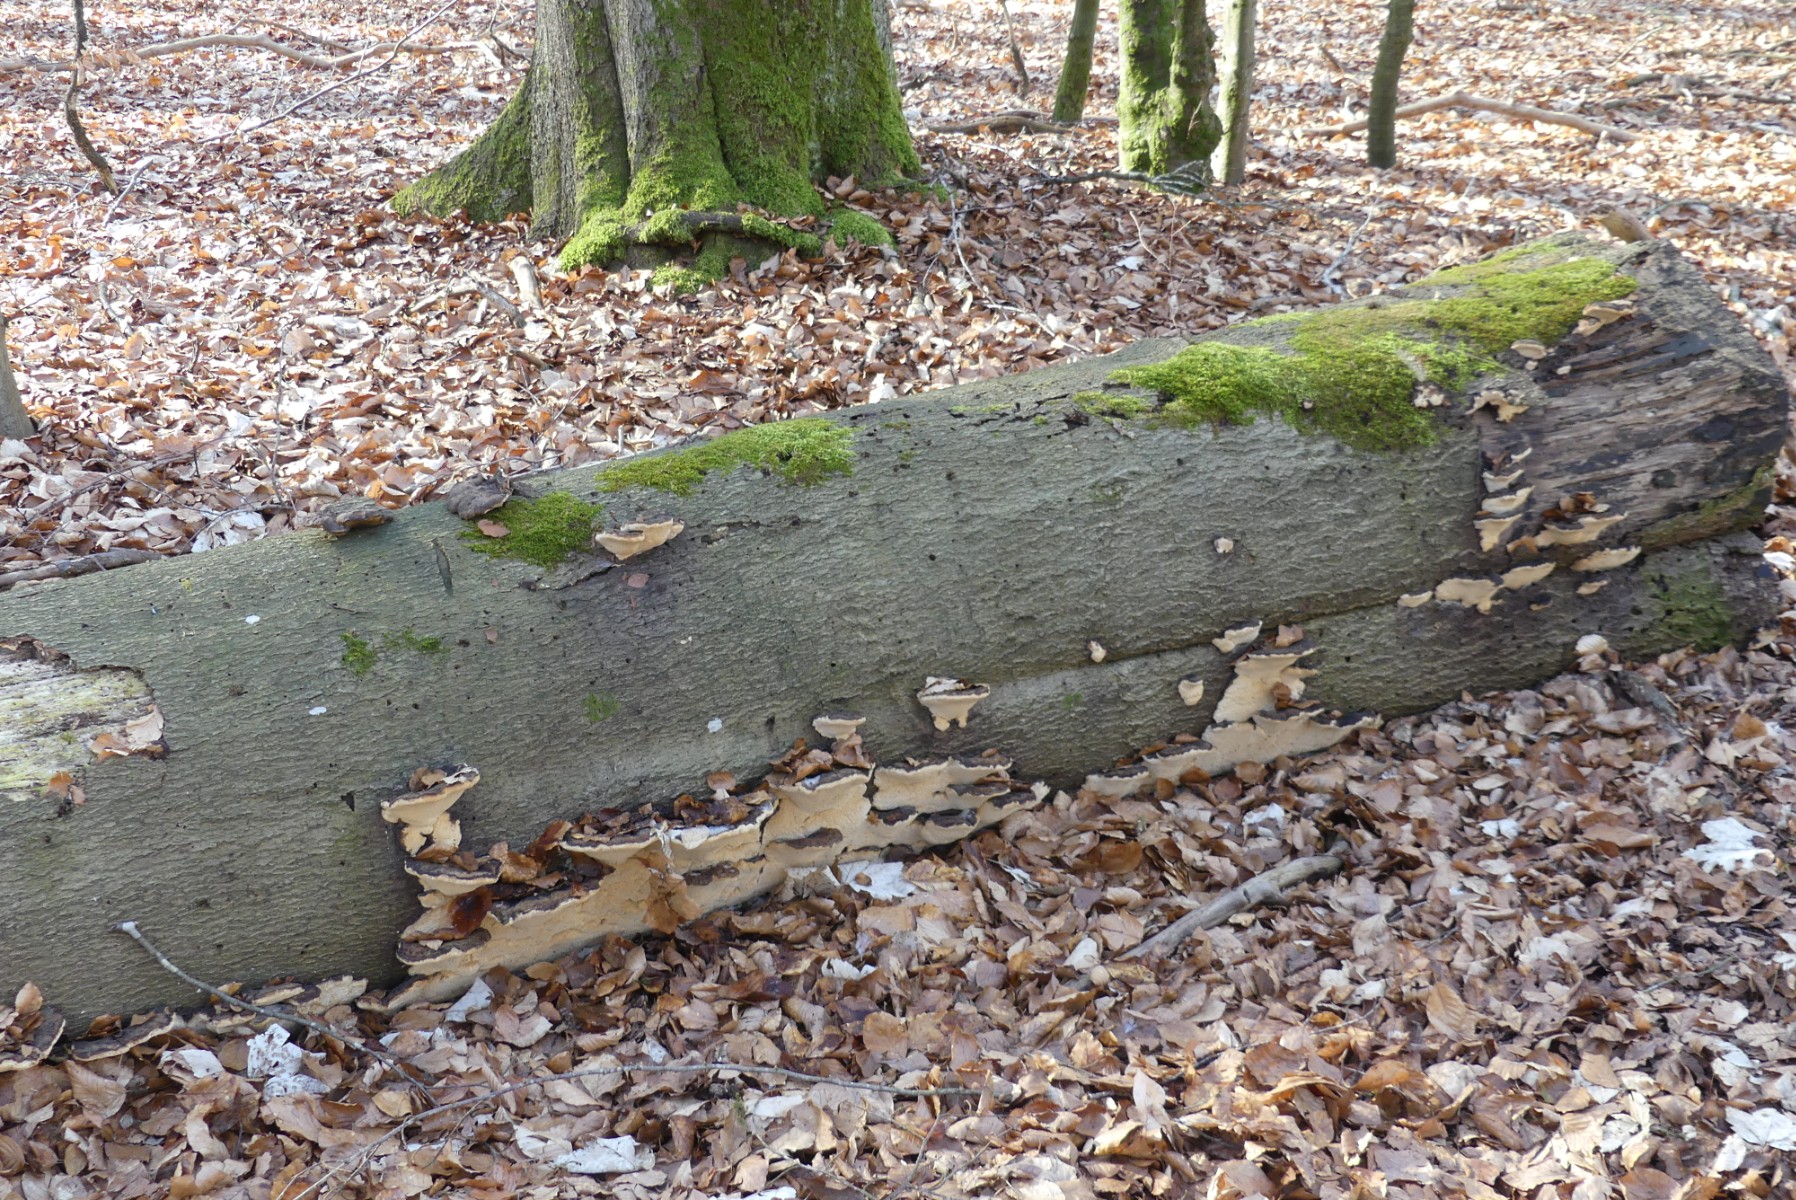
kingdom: Fungi
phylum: Basidiomycota
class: Agaricomycetes
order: Polyporales
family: Ischnodermataceae
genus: Ischnoderma
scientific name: Ischnoderma resinosum
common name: løv-tjæreporesvamp
